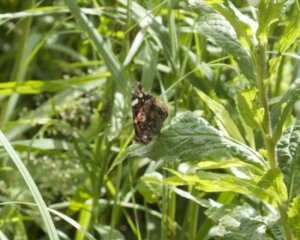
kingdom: Animalia
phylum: Arthropoda
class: Insecta
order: Lepidoptera
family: Nymphalidae
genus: Vanessa
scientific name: Vanessa atalanta
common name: Red Admiral
